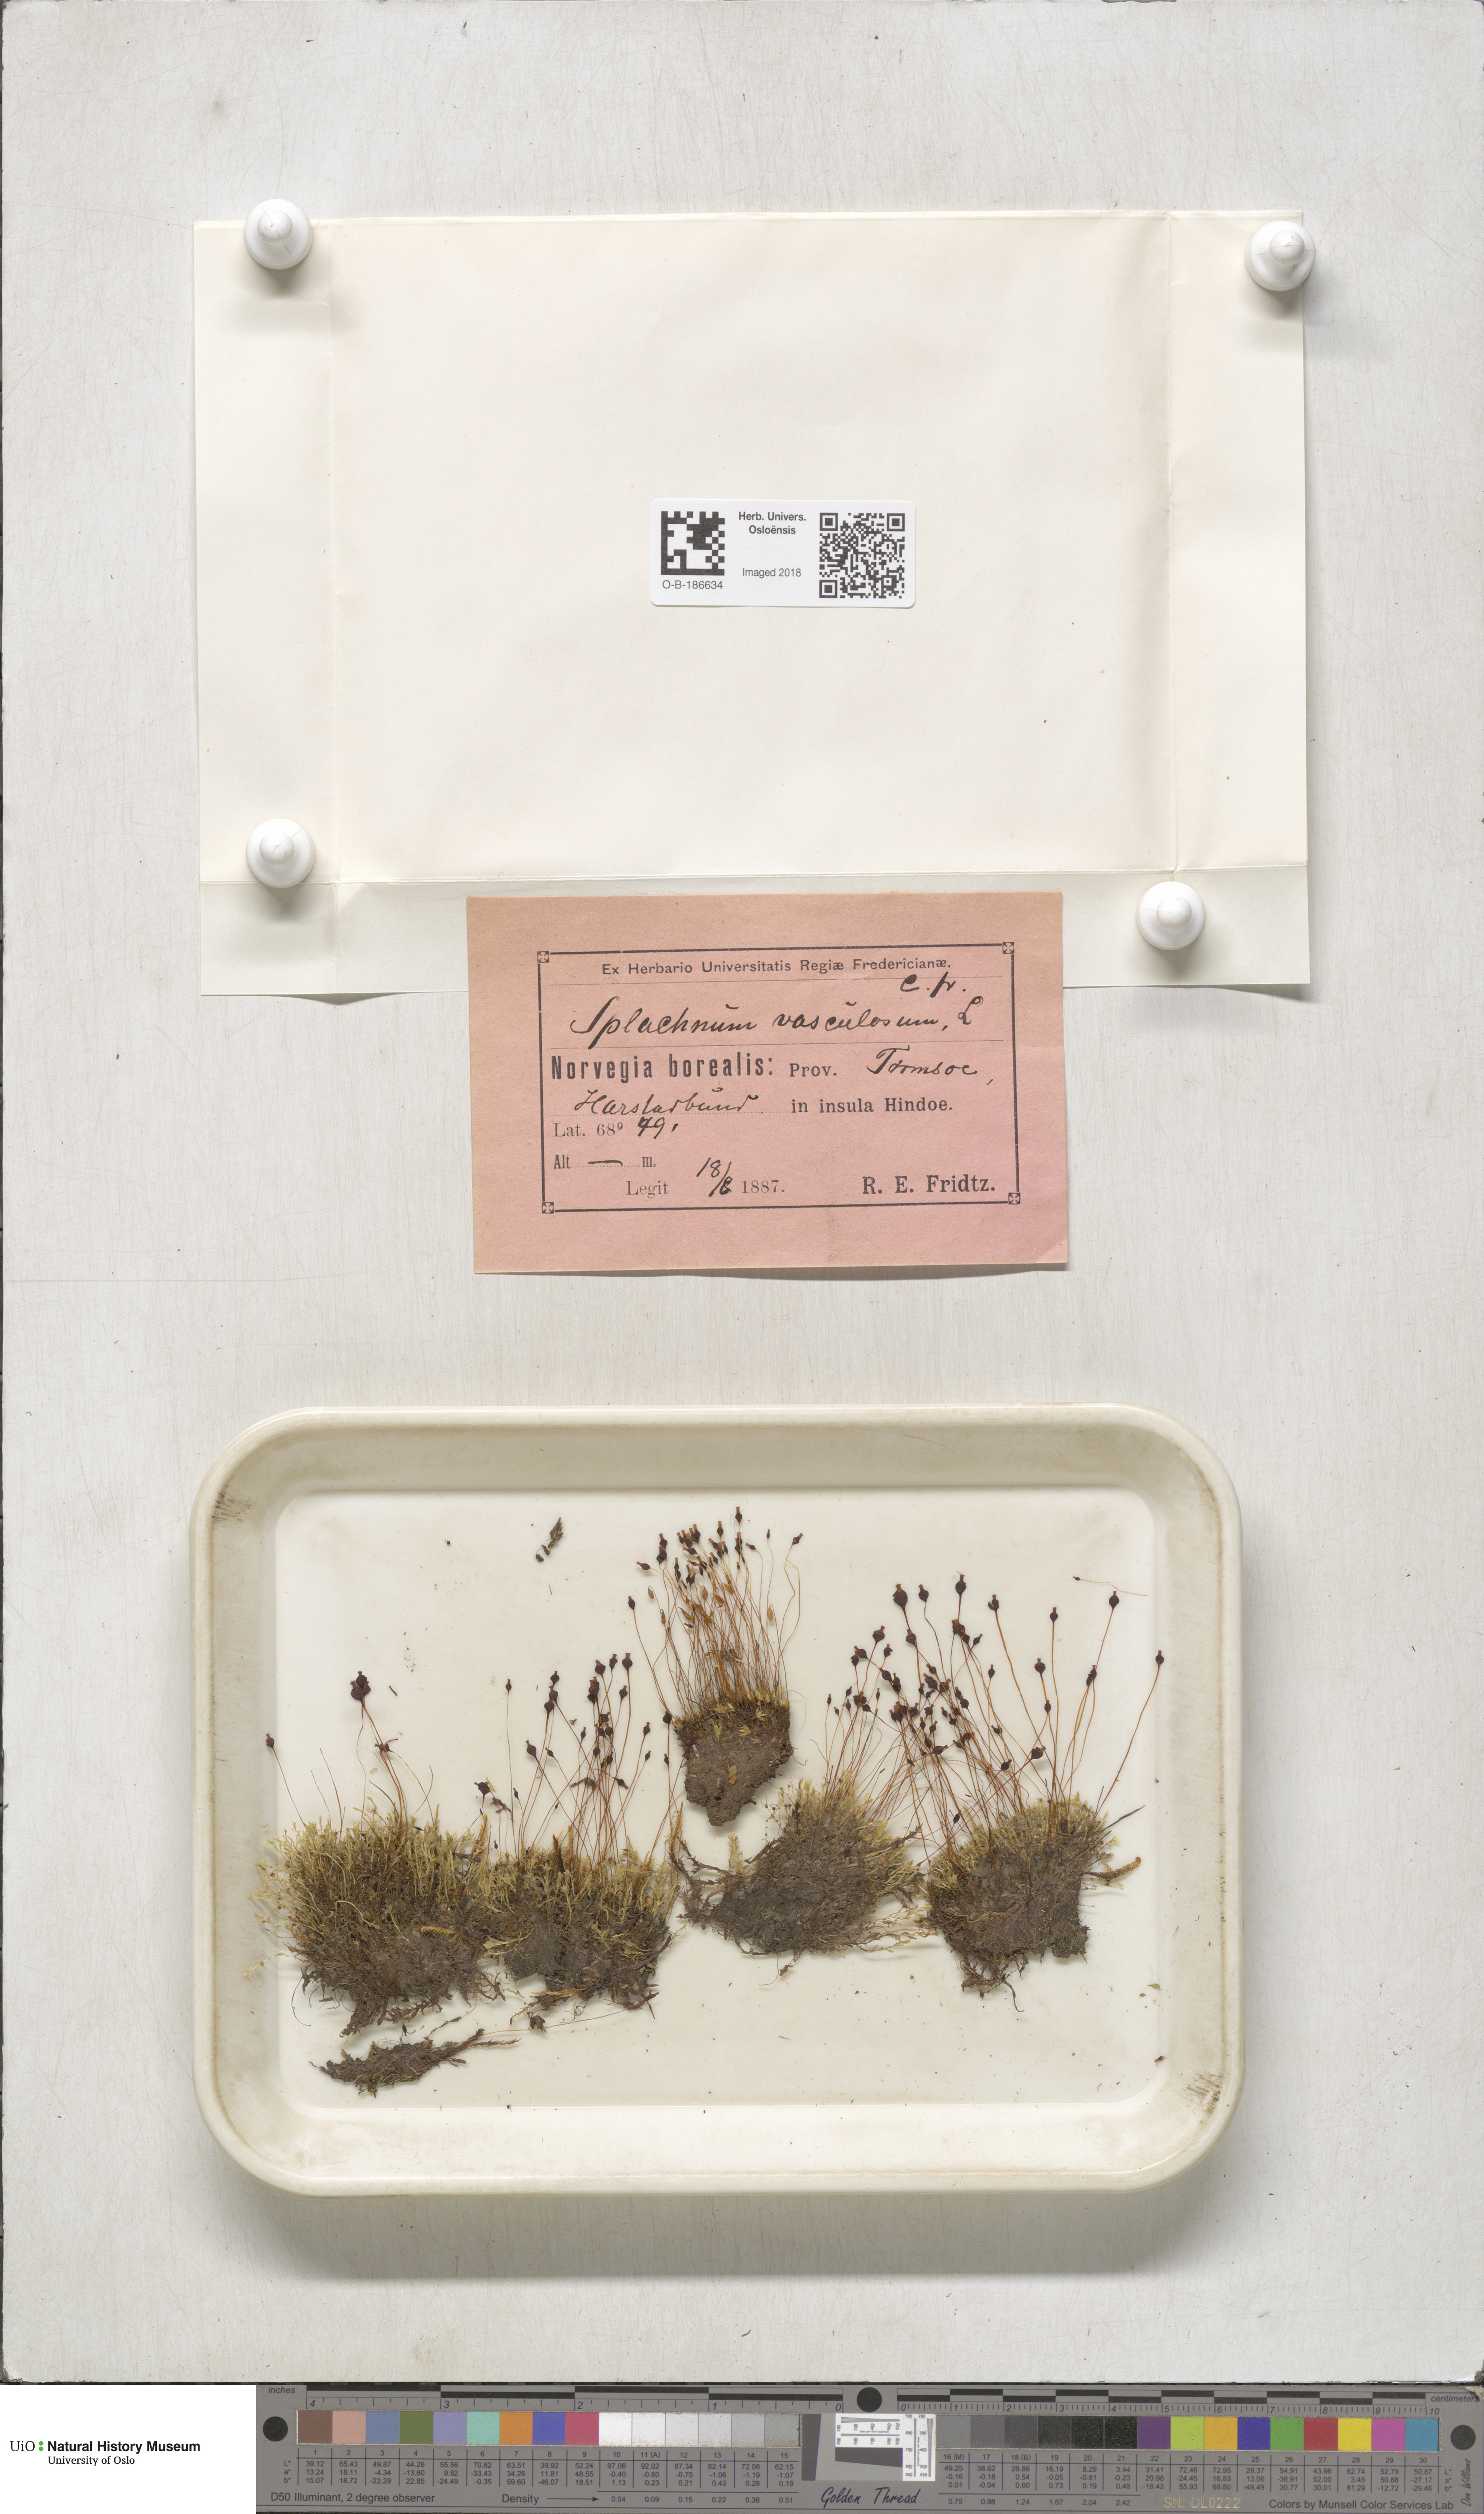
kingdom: Plantae
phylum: Bryophyta
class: Bryopsida
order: Splachnales
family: Splachnaceae
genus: Splachnum
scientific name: Splachnum vasculosum
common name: Rugged dung moss
